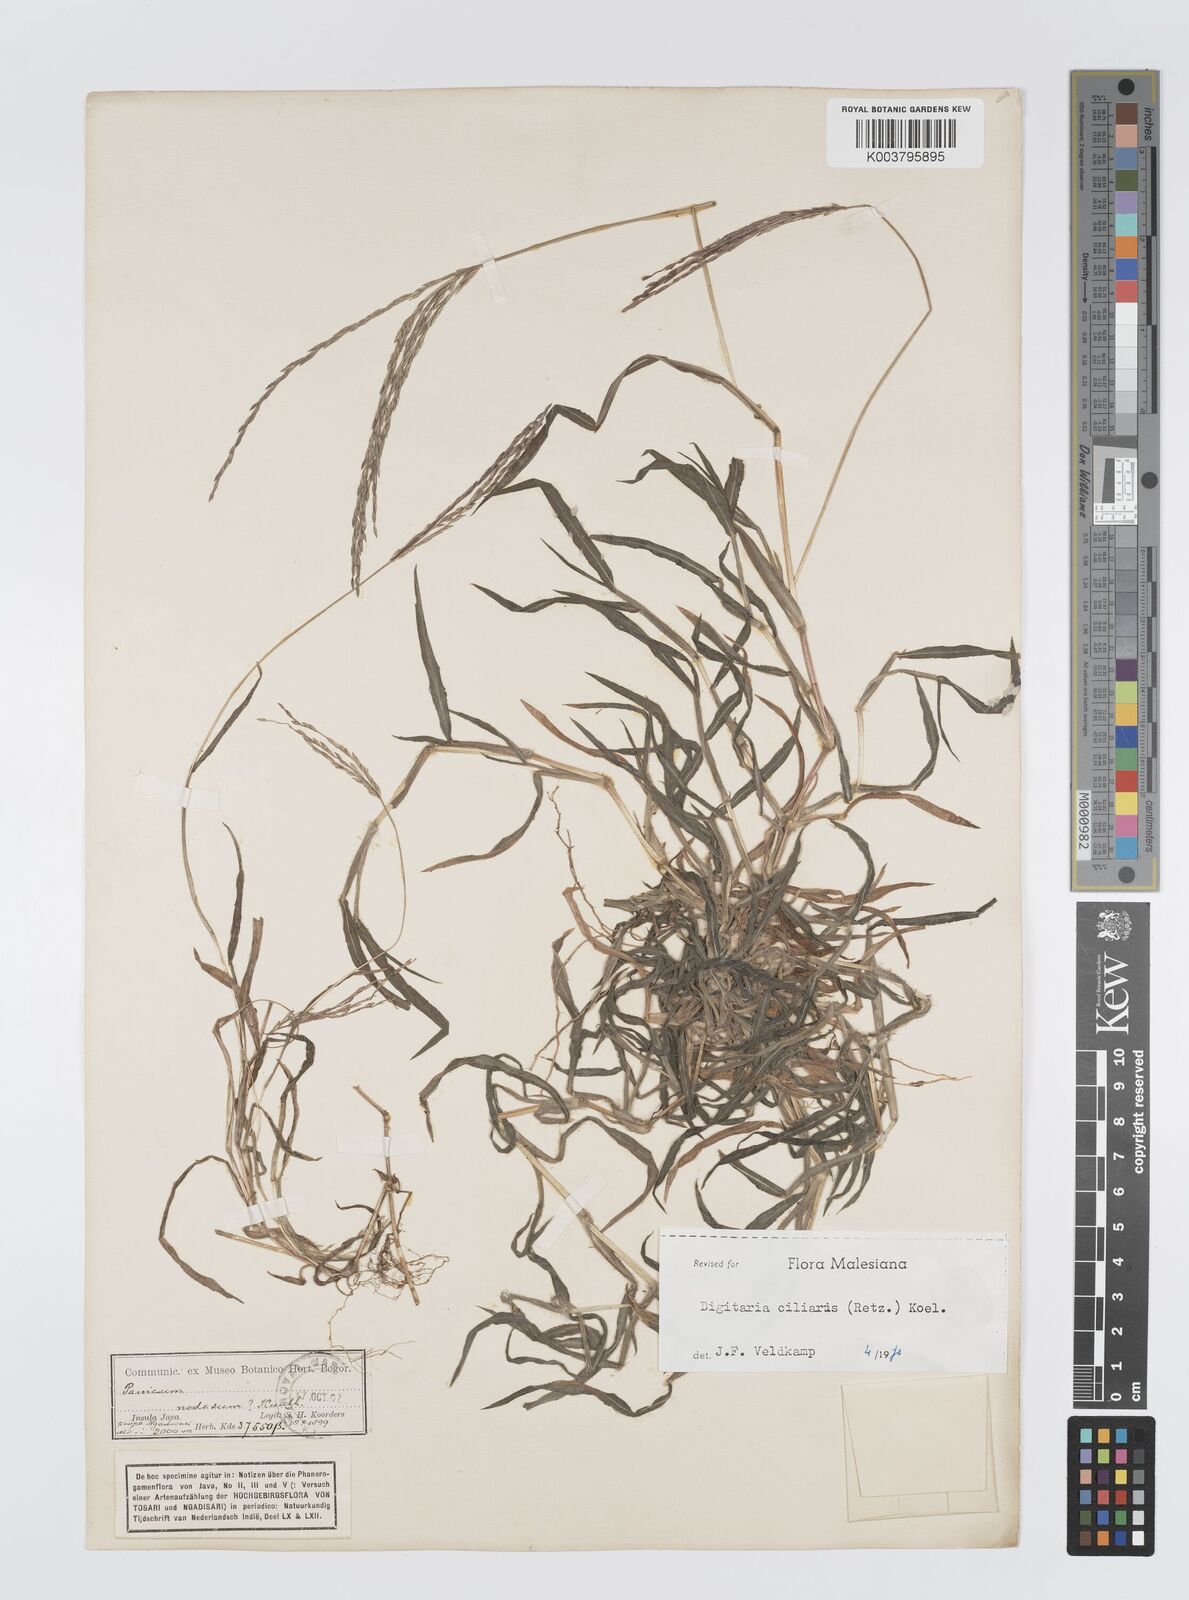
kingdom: Plantae
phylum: Tracheophyta
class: Liliopsida
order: Poales
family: Poaceae
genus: Digitaria
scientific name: Digitaria ciliaris
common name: Tropical finger-grass
